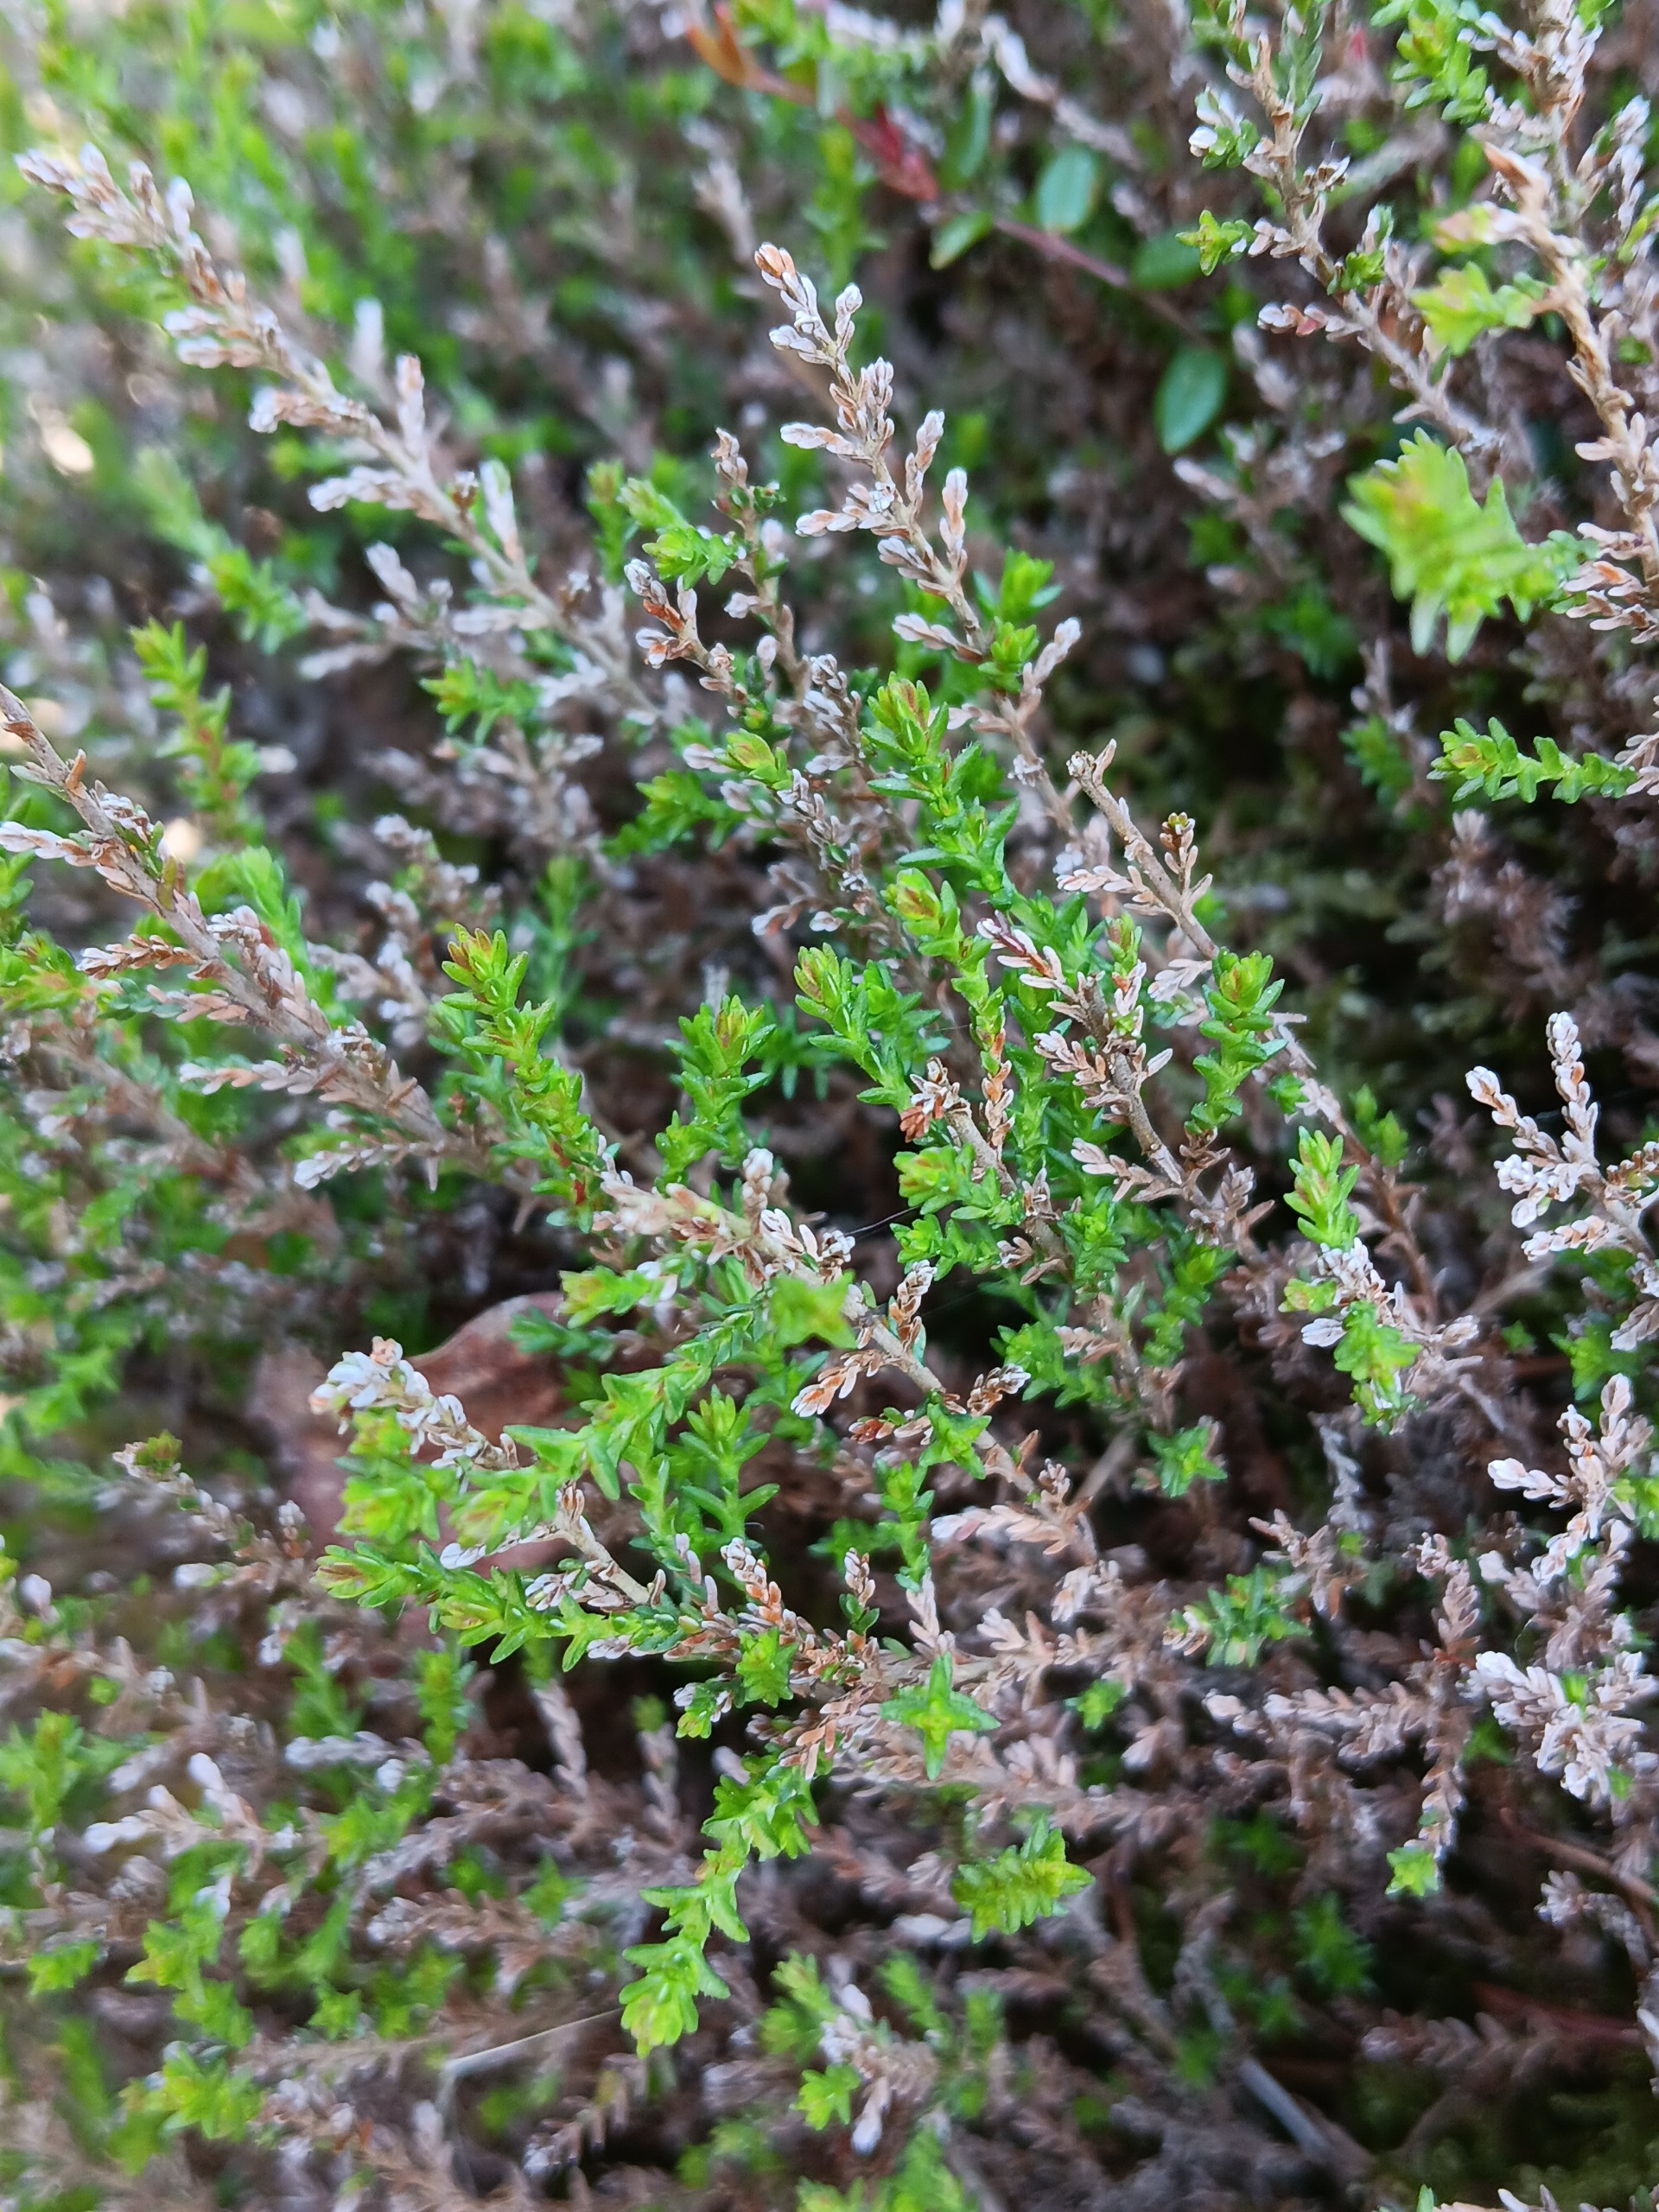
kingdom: Plantae
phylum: Tracheophyta
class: Magnoliopsida
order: Ericales
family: Ericaceae
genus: Calluna
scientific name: Calluna vulgaris
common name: Hedelyng
